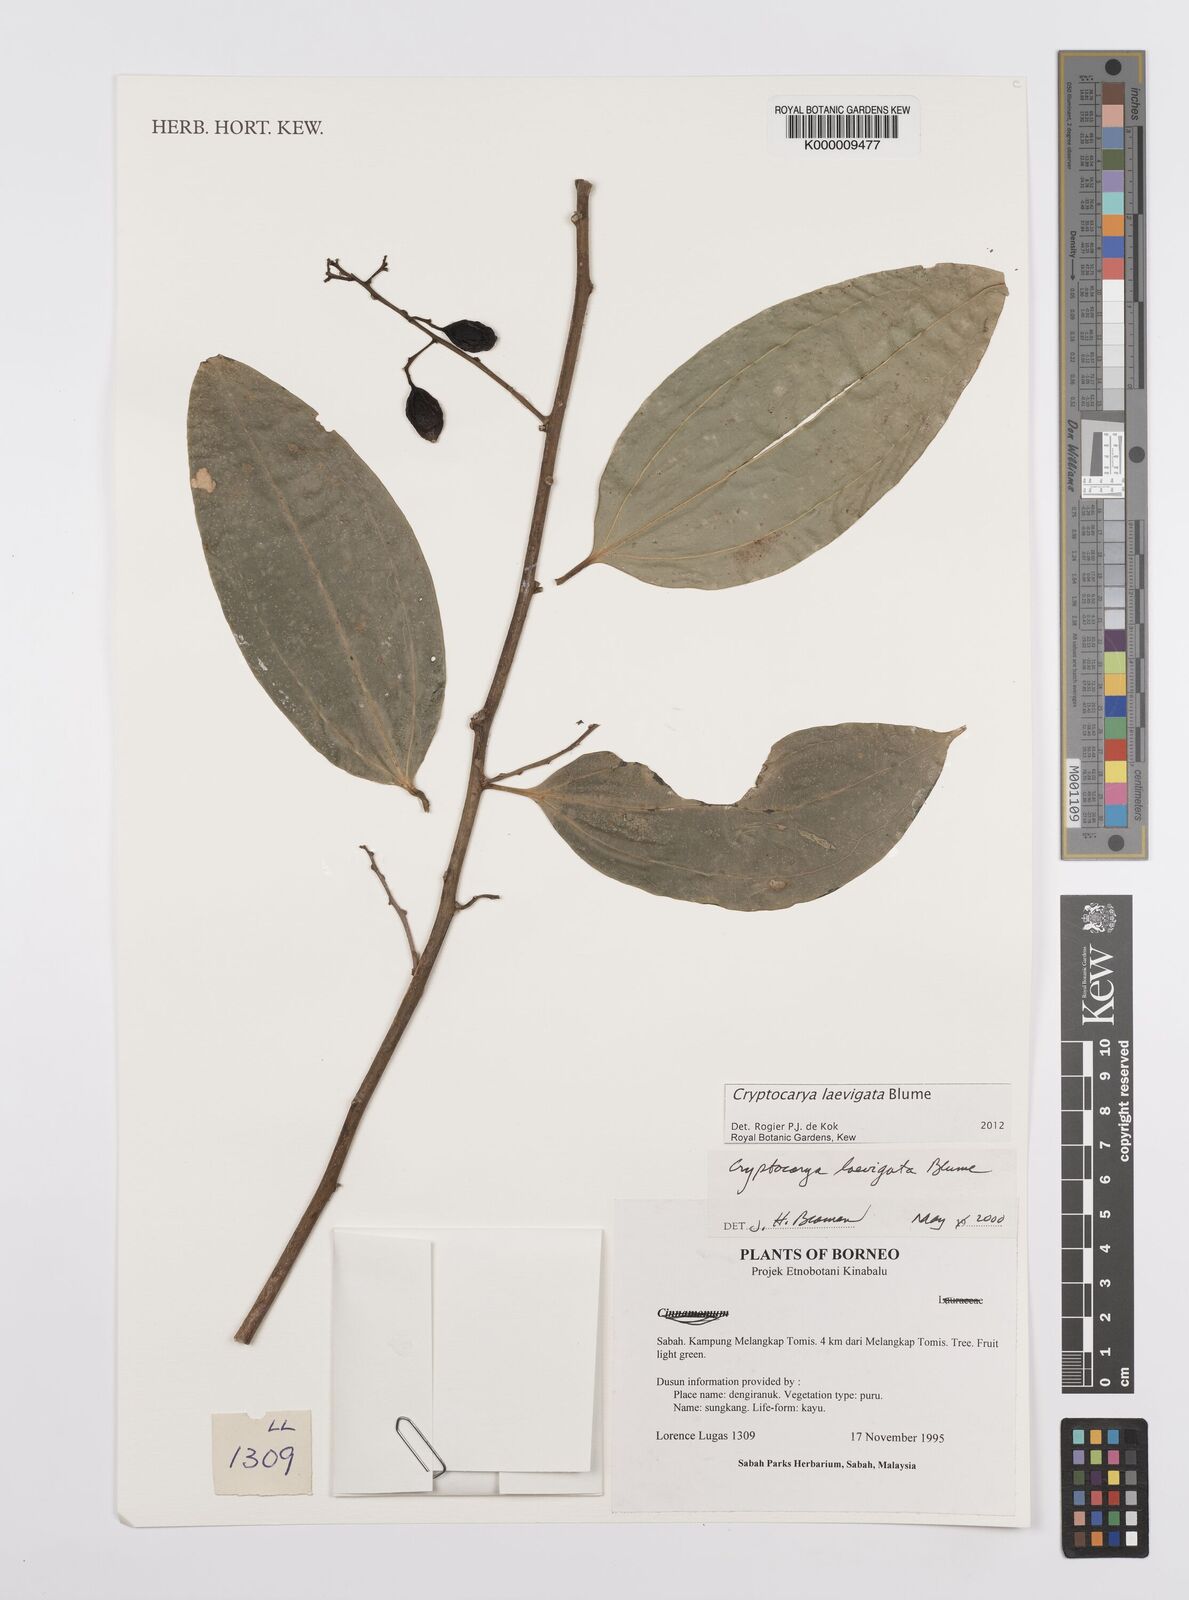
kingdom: Plantae
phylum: Tracheophyta
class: Magnoliopsida
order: Laurales
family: Lauraceae
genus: Cryptocarya
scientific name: Cryptocarya laevigata
